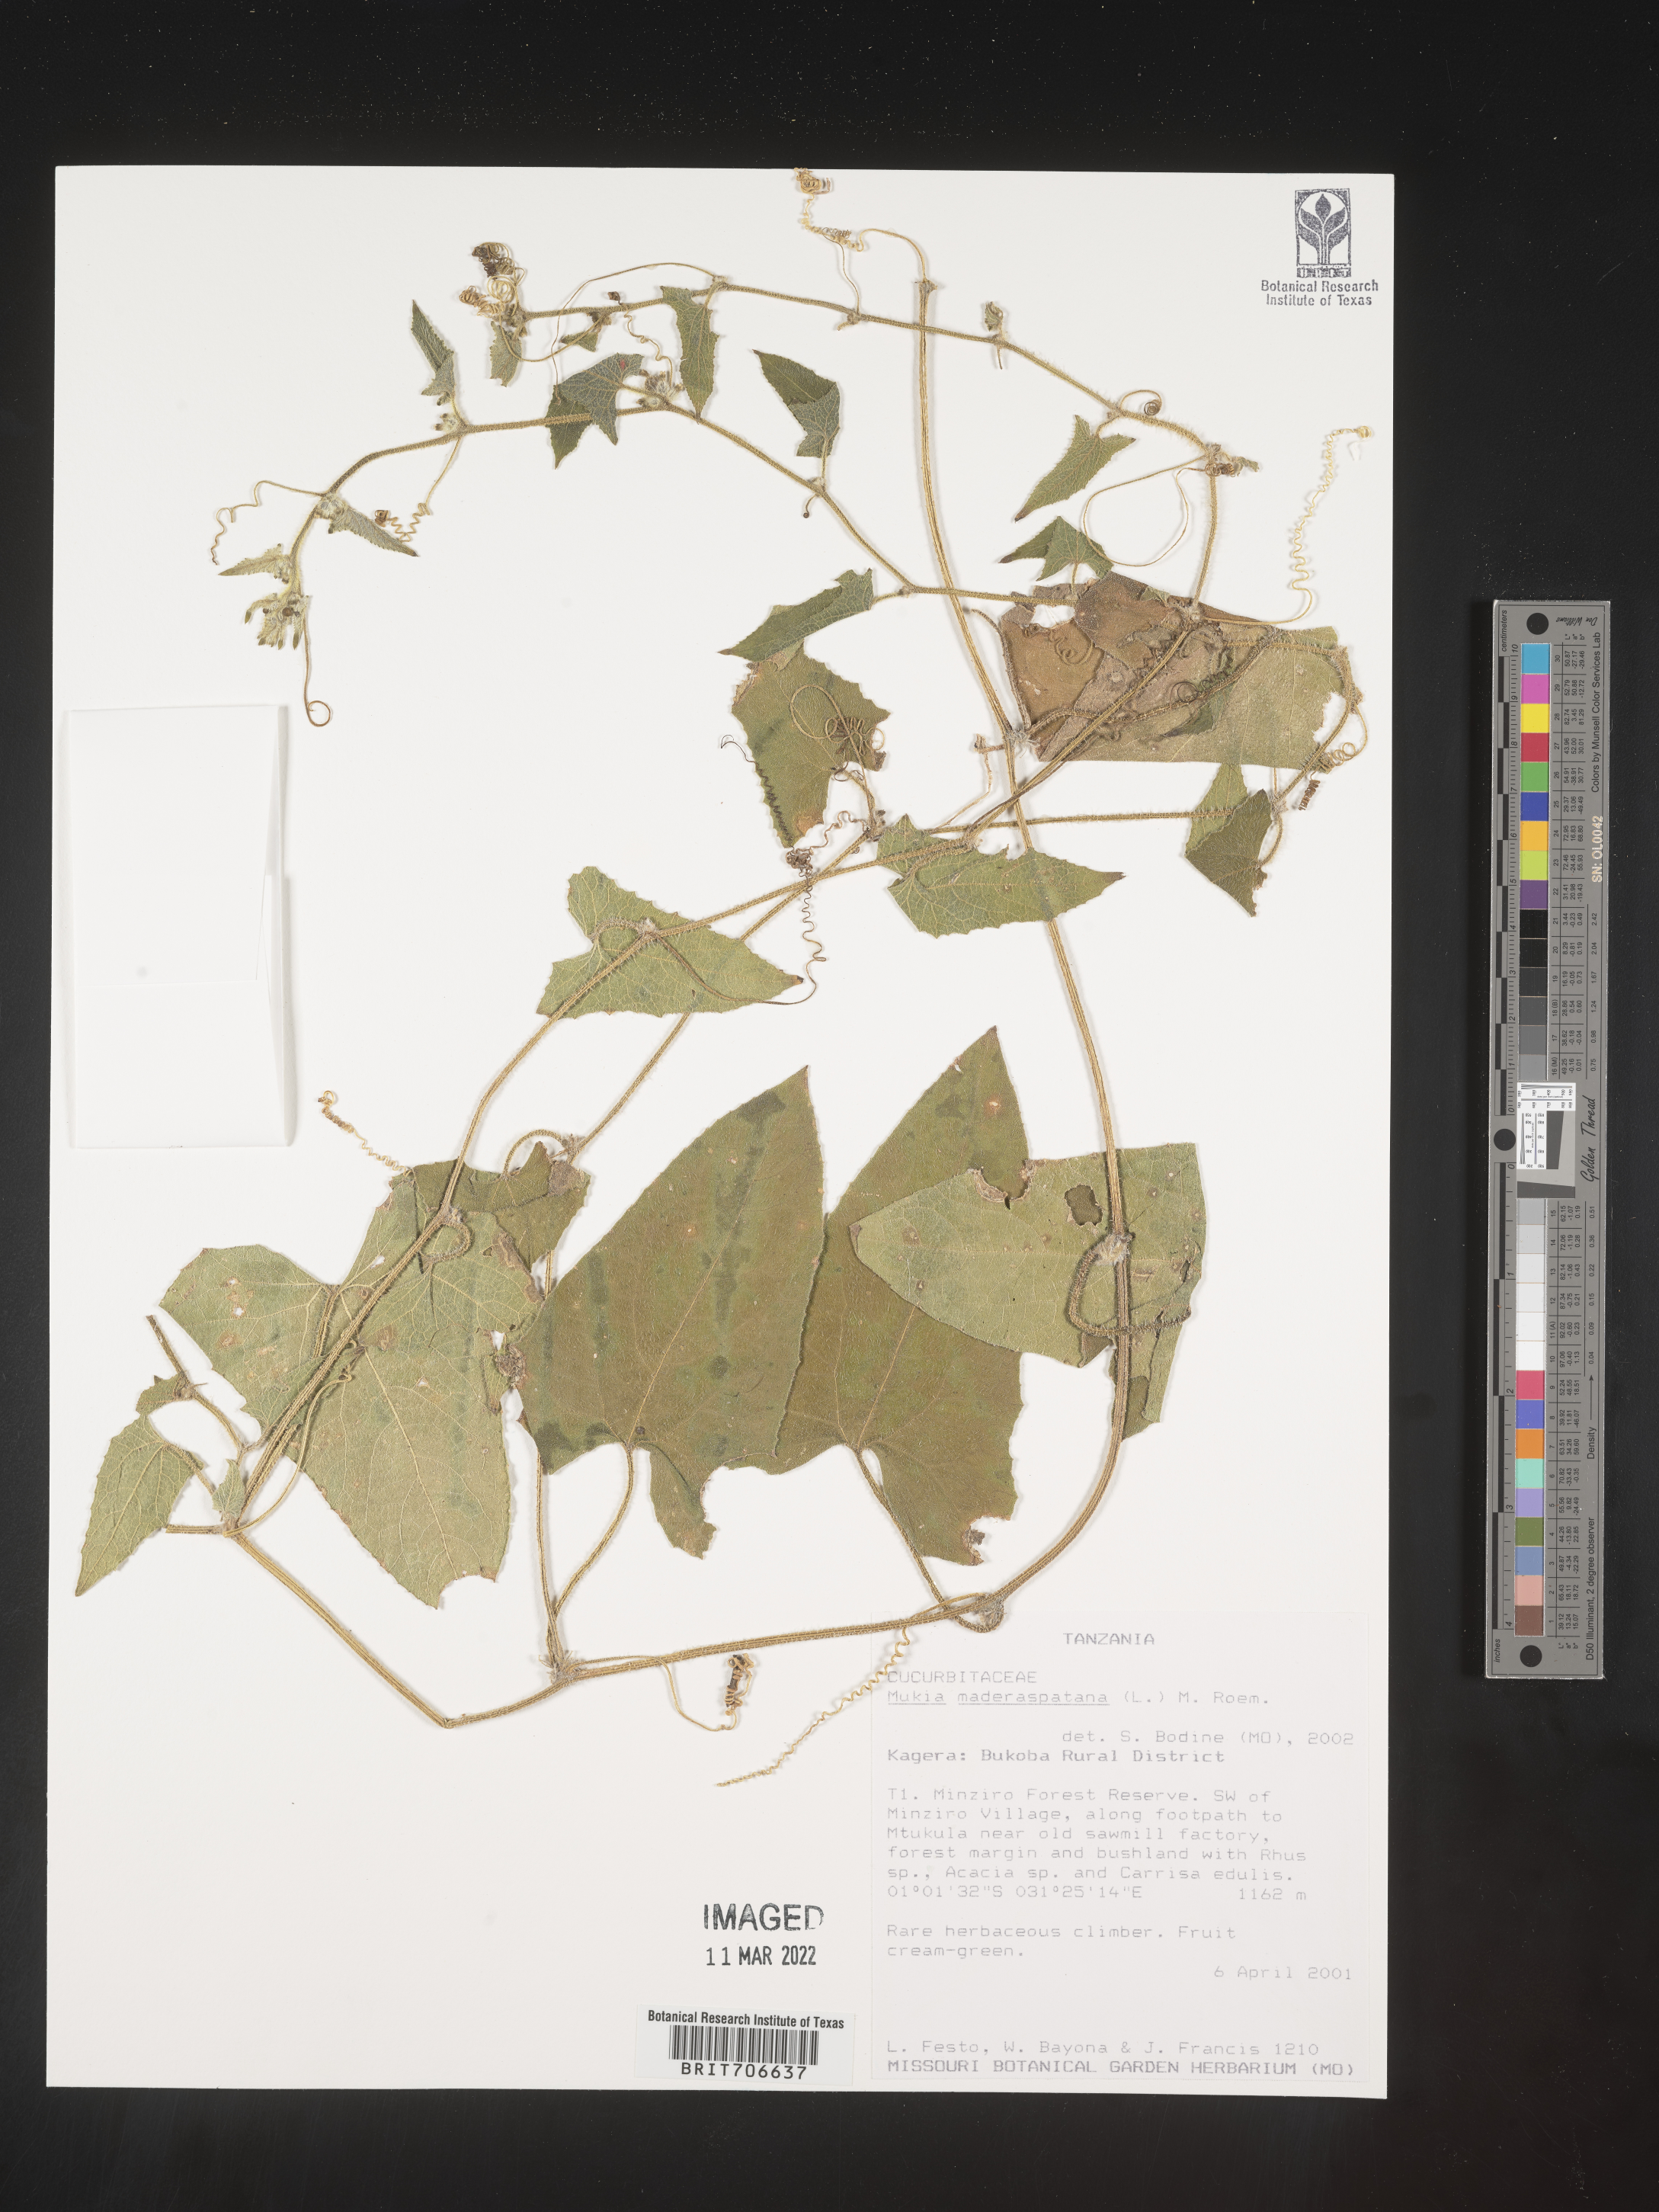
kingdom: Animalia
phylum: Arthropoda
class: Insecta
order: Lepidoptera
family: Crambidae
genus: Mukia
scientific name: Mukia
